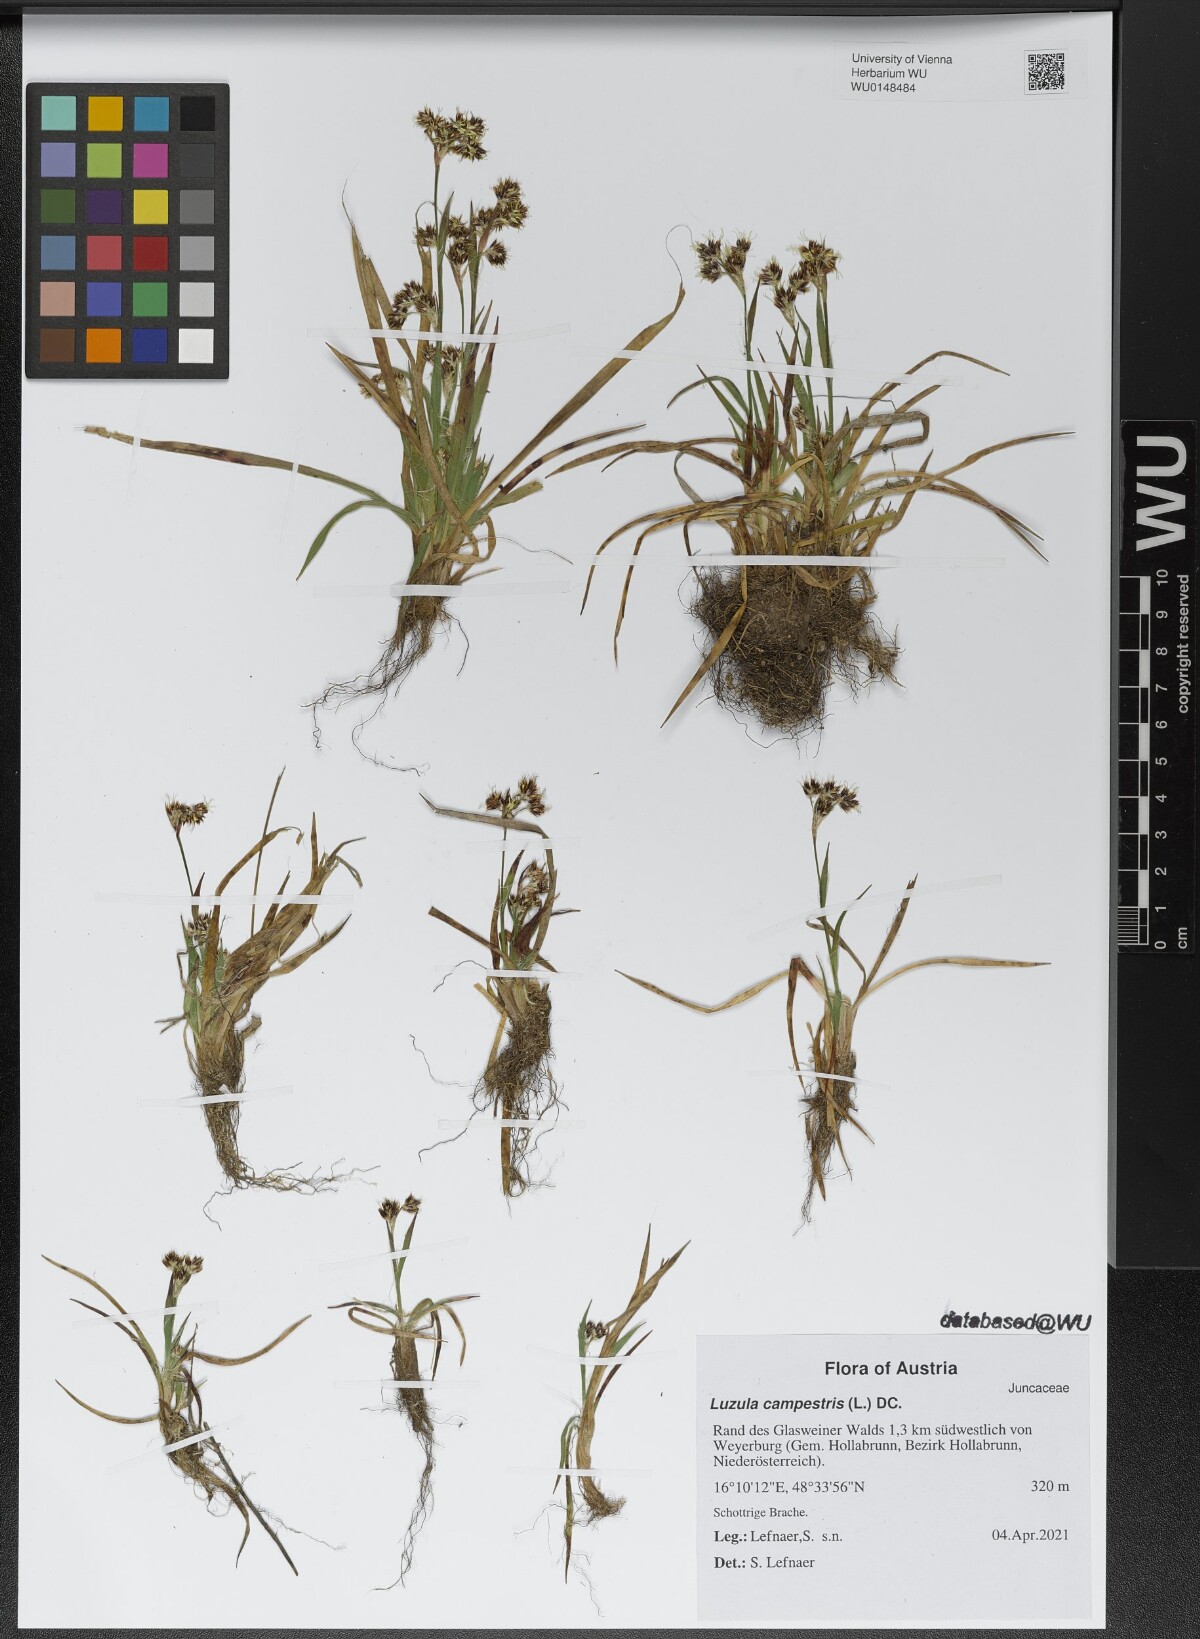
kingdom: Plantae
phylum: Tracheophyta
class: Liliopsida
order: Poales
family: Juncaceae
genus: Luzula
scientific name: Luzula campestris
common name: Field wood-rush
